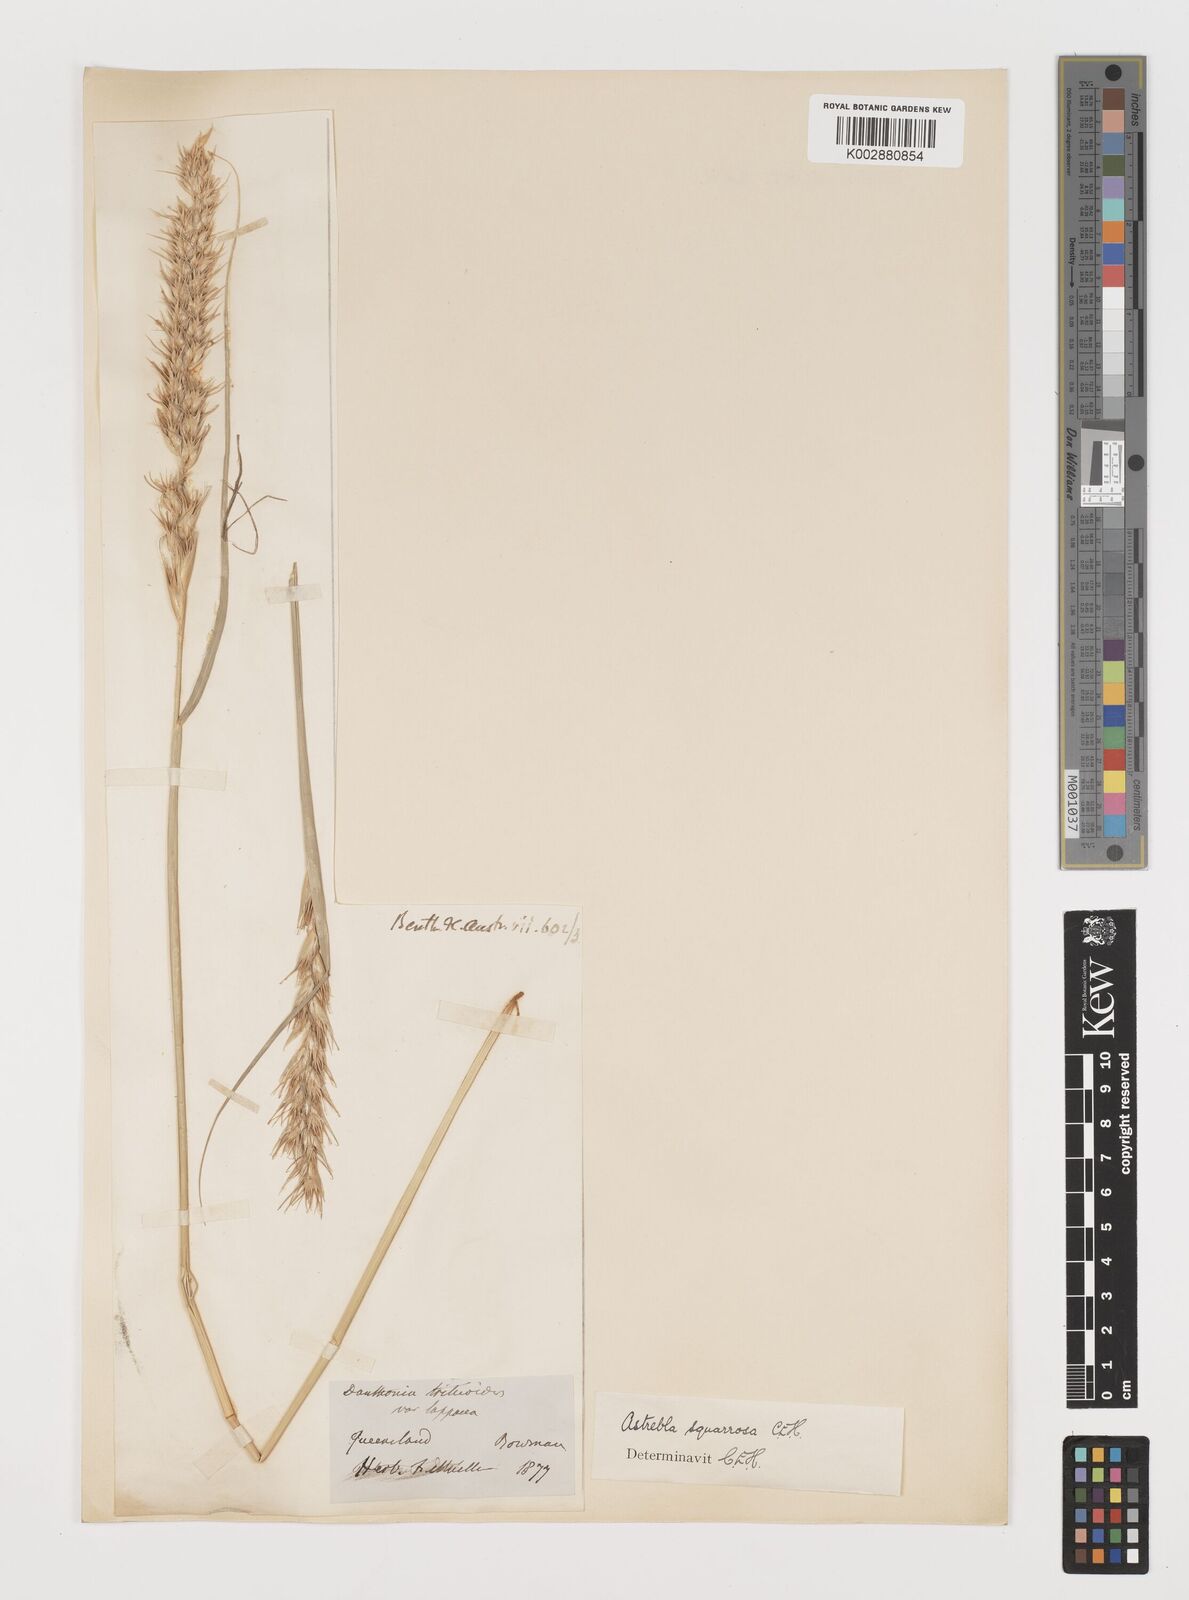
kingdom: Plantae
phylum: Tracheophyta
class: Liliopsida
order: Poales
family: Poaceae
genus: Astrebla
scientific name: Astrebla squarrosa
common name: Wheat-ear mitchell grass
